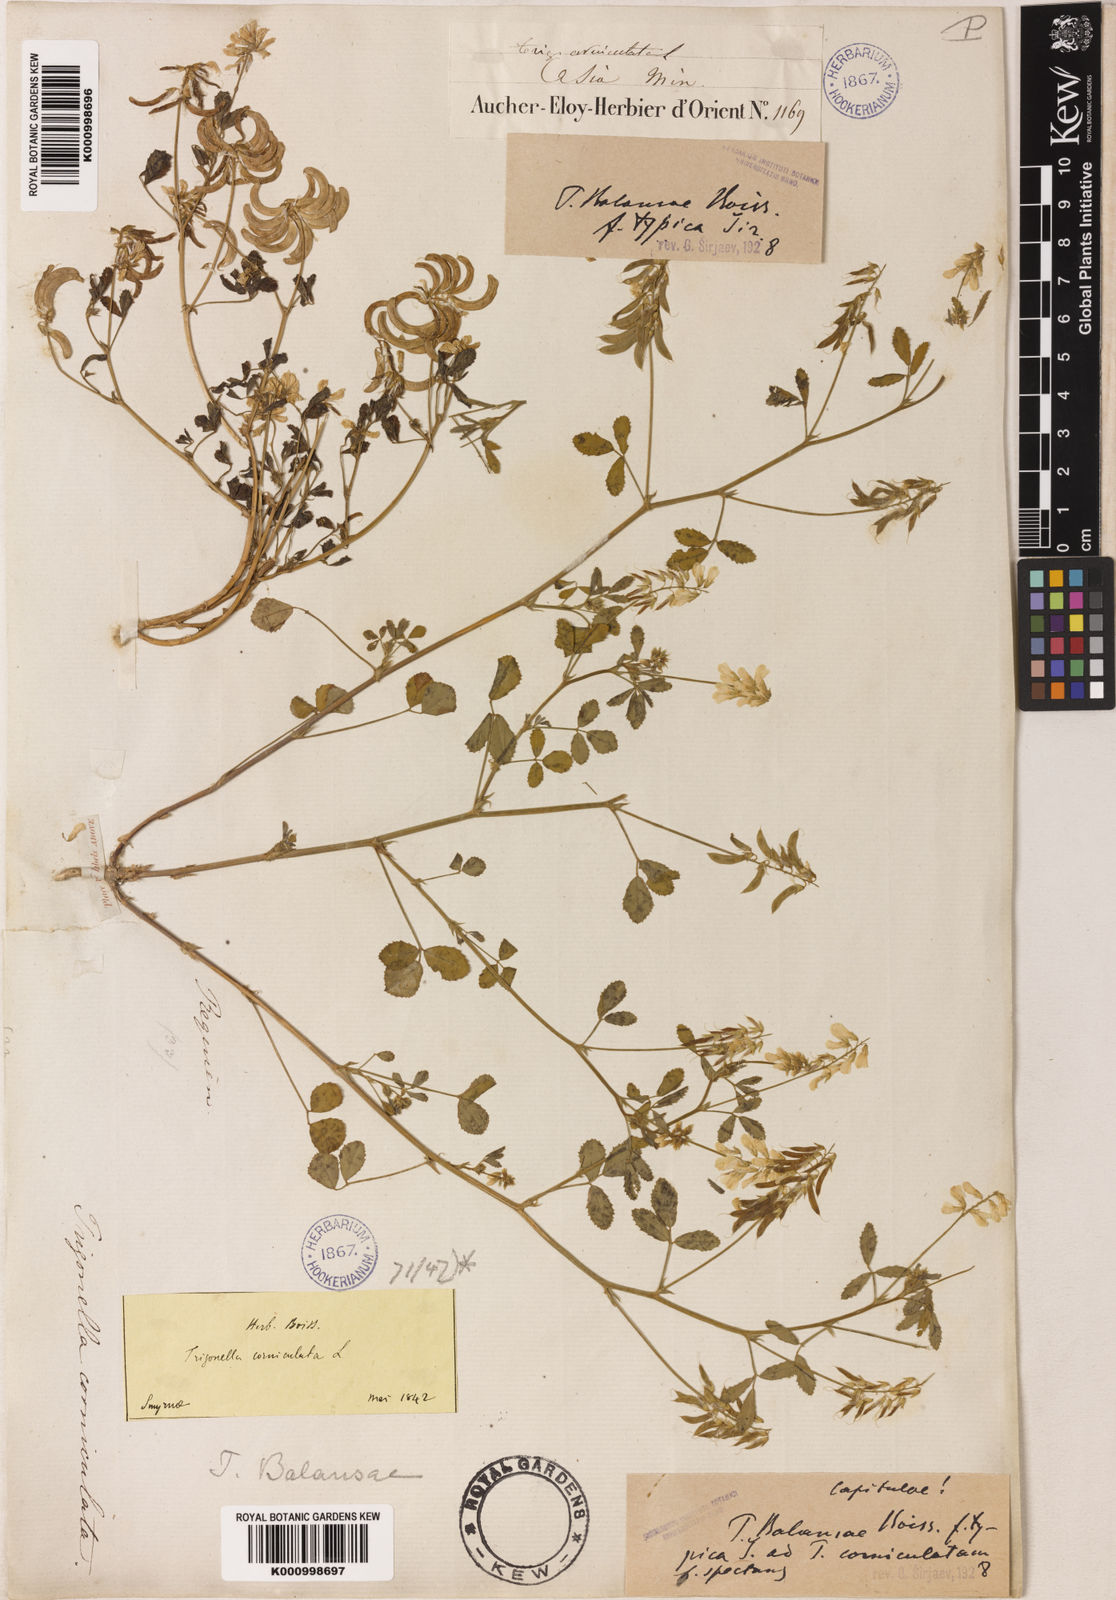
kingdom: Plantae
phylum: Tracheophyta
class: Magnoliopsida
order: Fabales
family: Fabaceae
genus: Trigonella
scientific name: Trigonella balansae
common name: Sickle-fruited fenugreek
